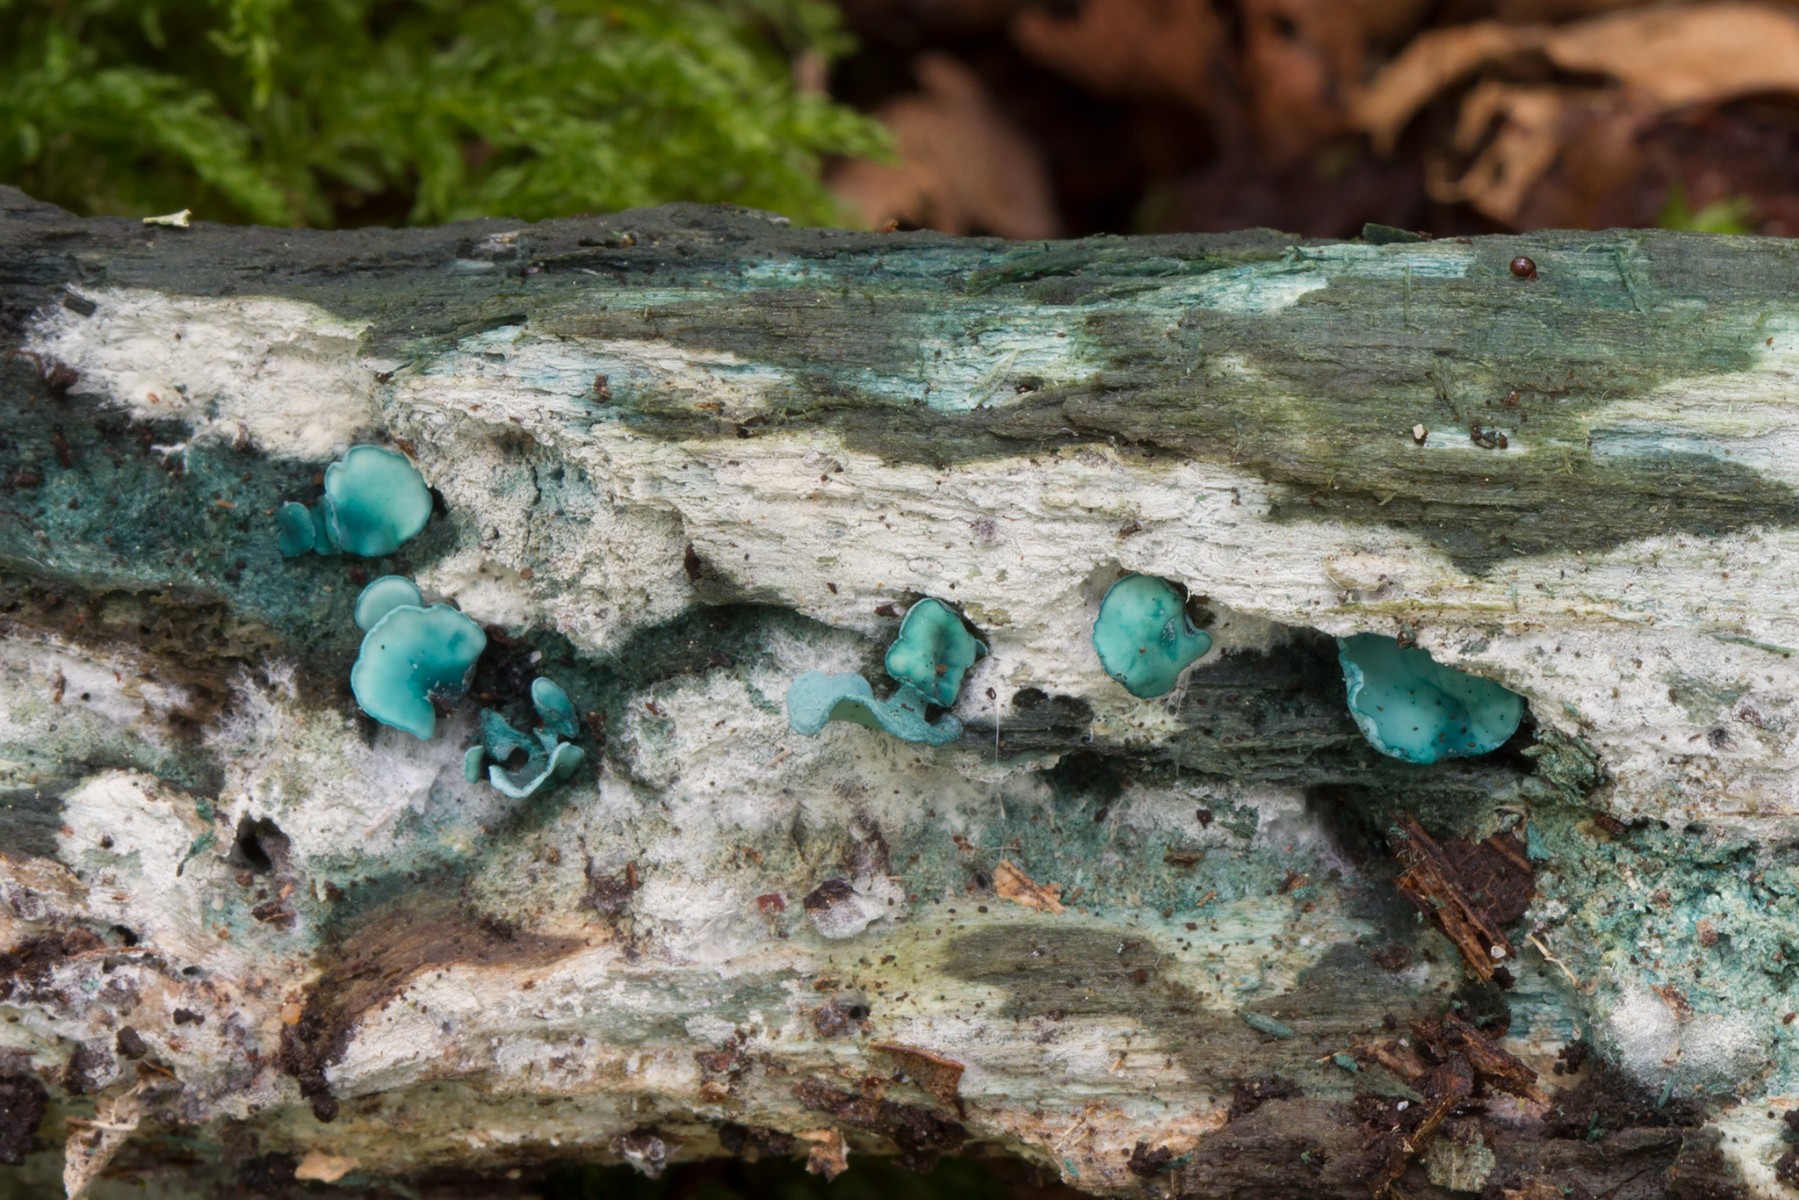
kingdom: Fungi
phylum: Ascomycota
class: Leotiomycetes
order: Helotiales
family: Chlorociboriaceae
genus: Chlorociboria
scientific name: Chlorociboria aeruginascens
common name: almindelig grønskive
